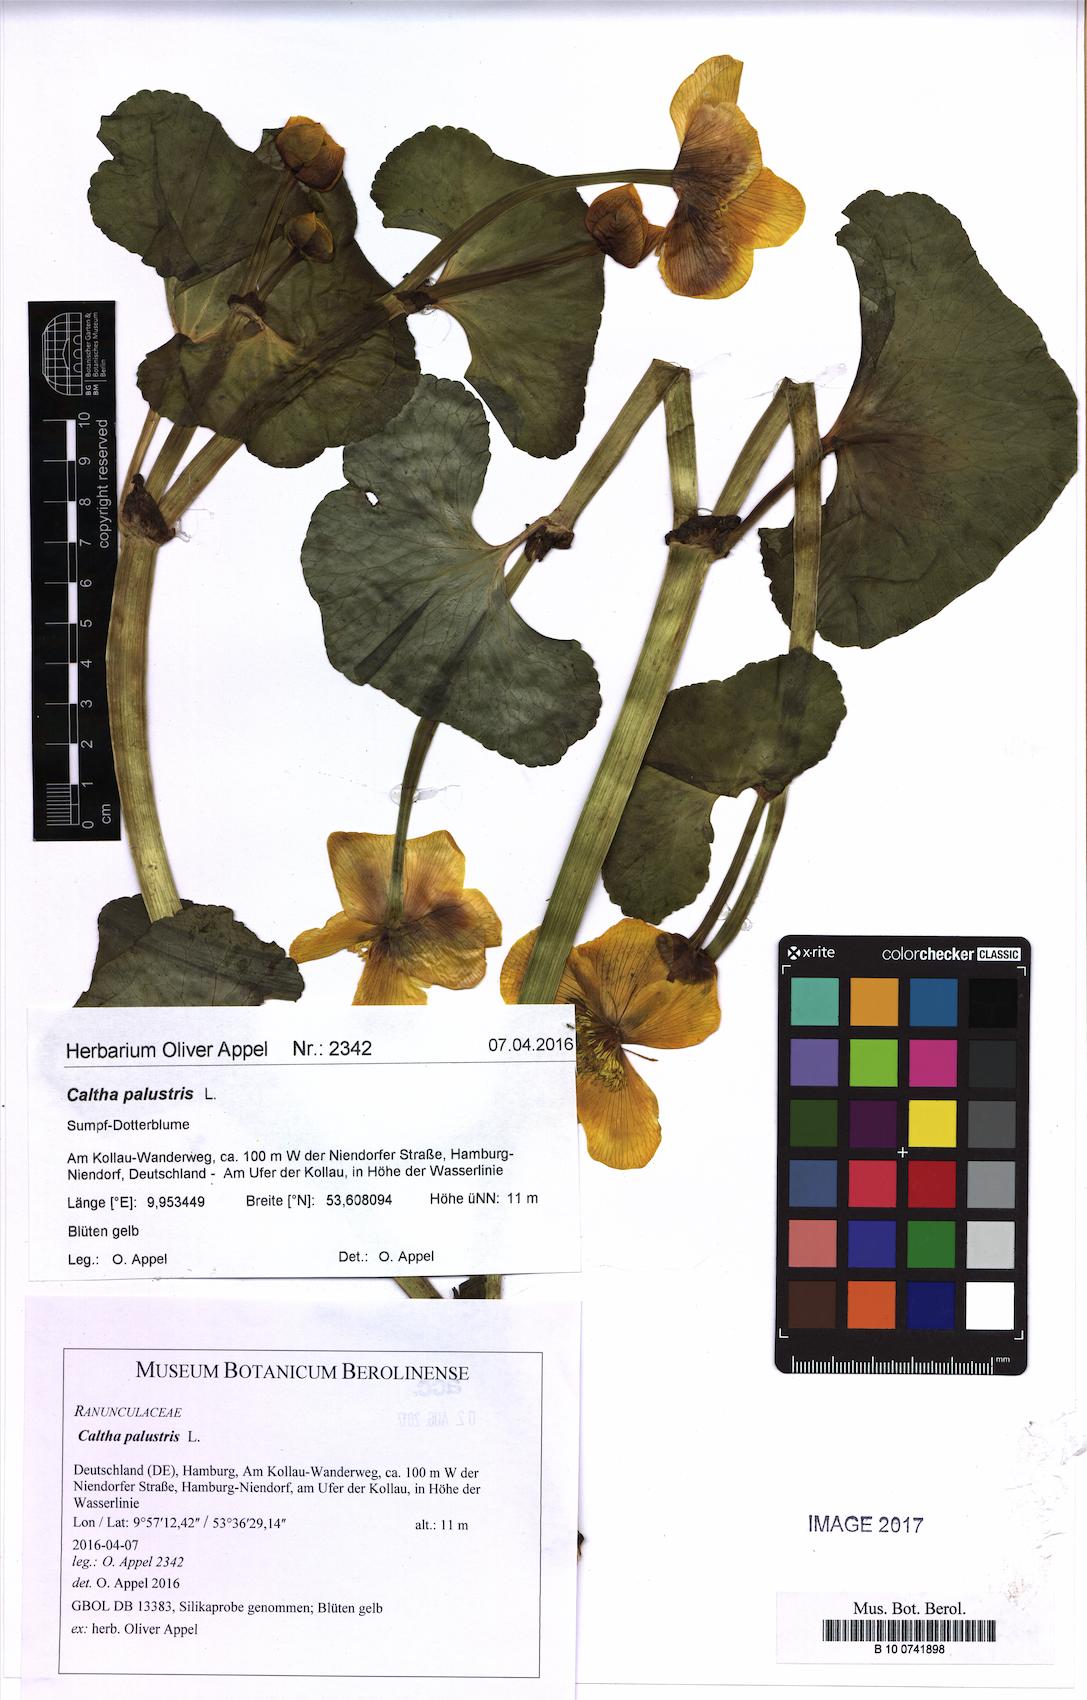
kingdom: Plantae
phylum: Tracheophyta
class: Magnoliopsida
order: Ranunculales
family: Ranunculaceae
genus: Caltha
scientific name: Caltha palustris
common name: Marsh marigold
